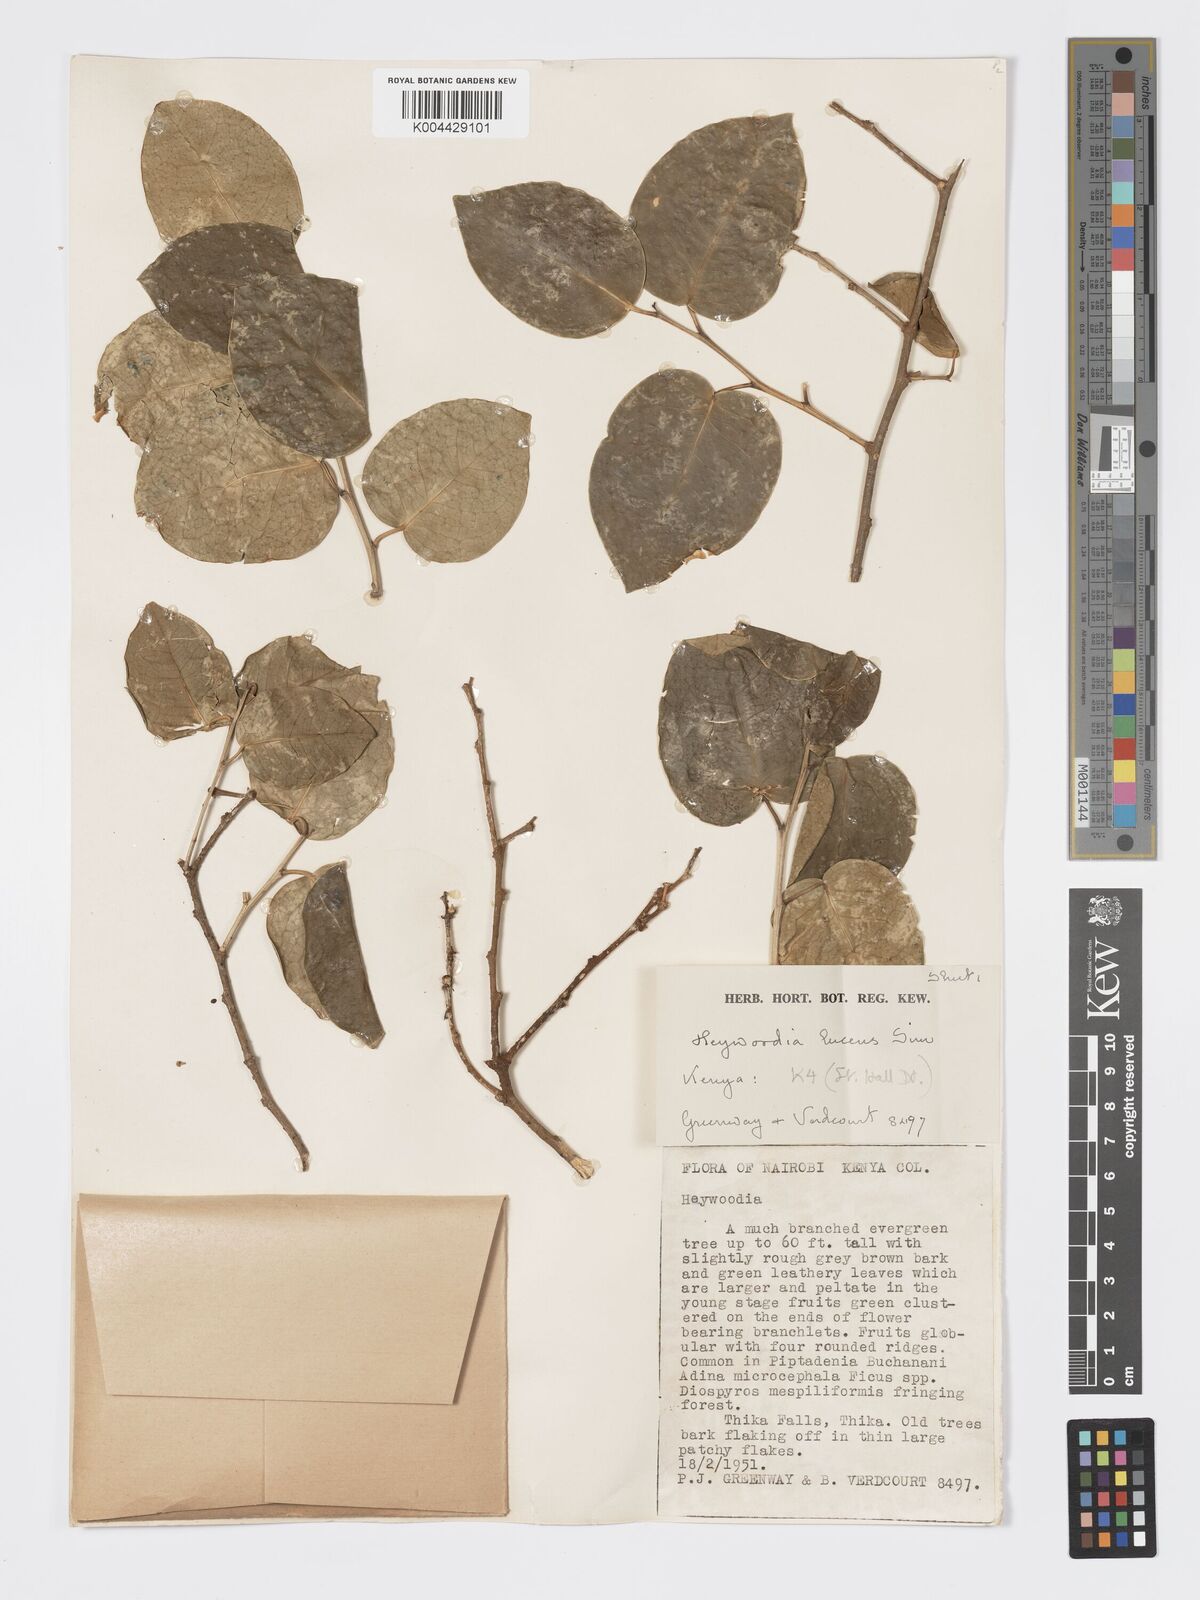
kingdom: Plantae
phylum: Tracheophyta
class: Magnoliopsida
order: Malpighiales
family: Phyllanthaceae
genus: Heywoodia
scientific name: Heywoodia lucens
